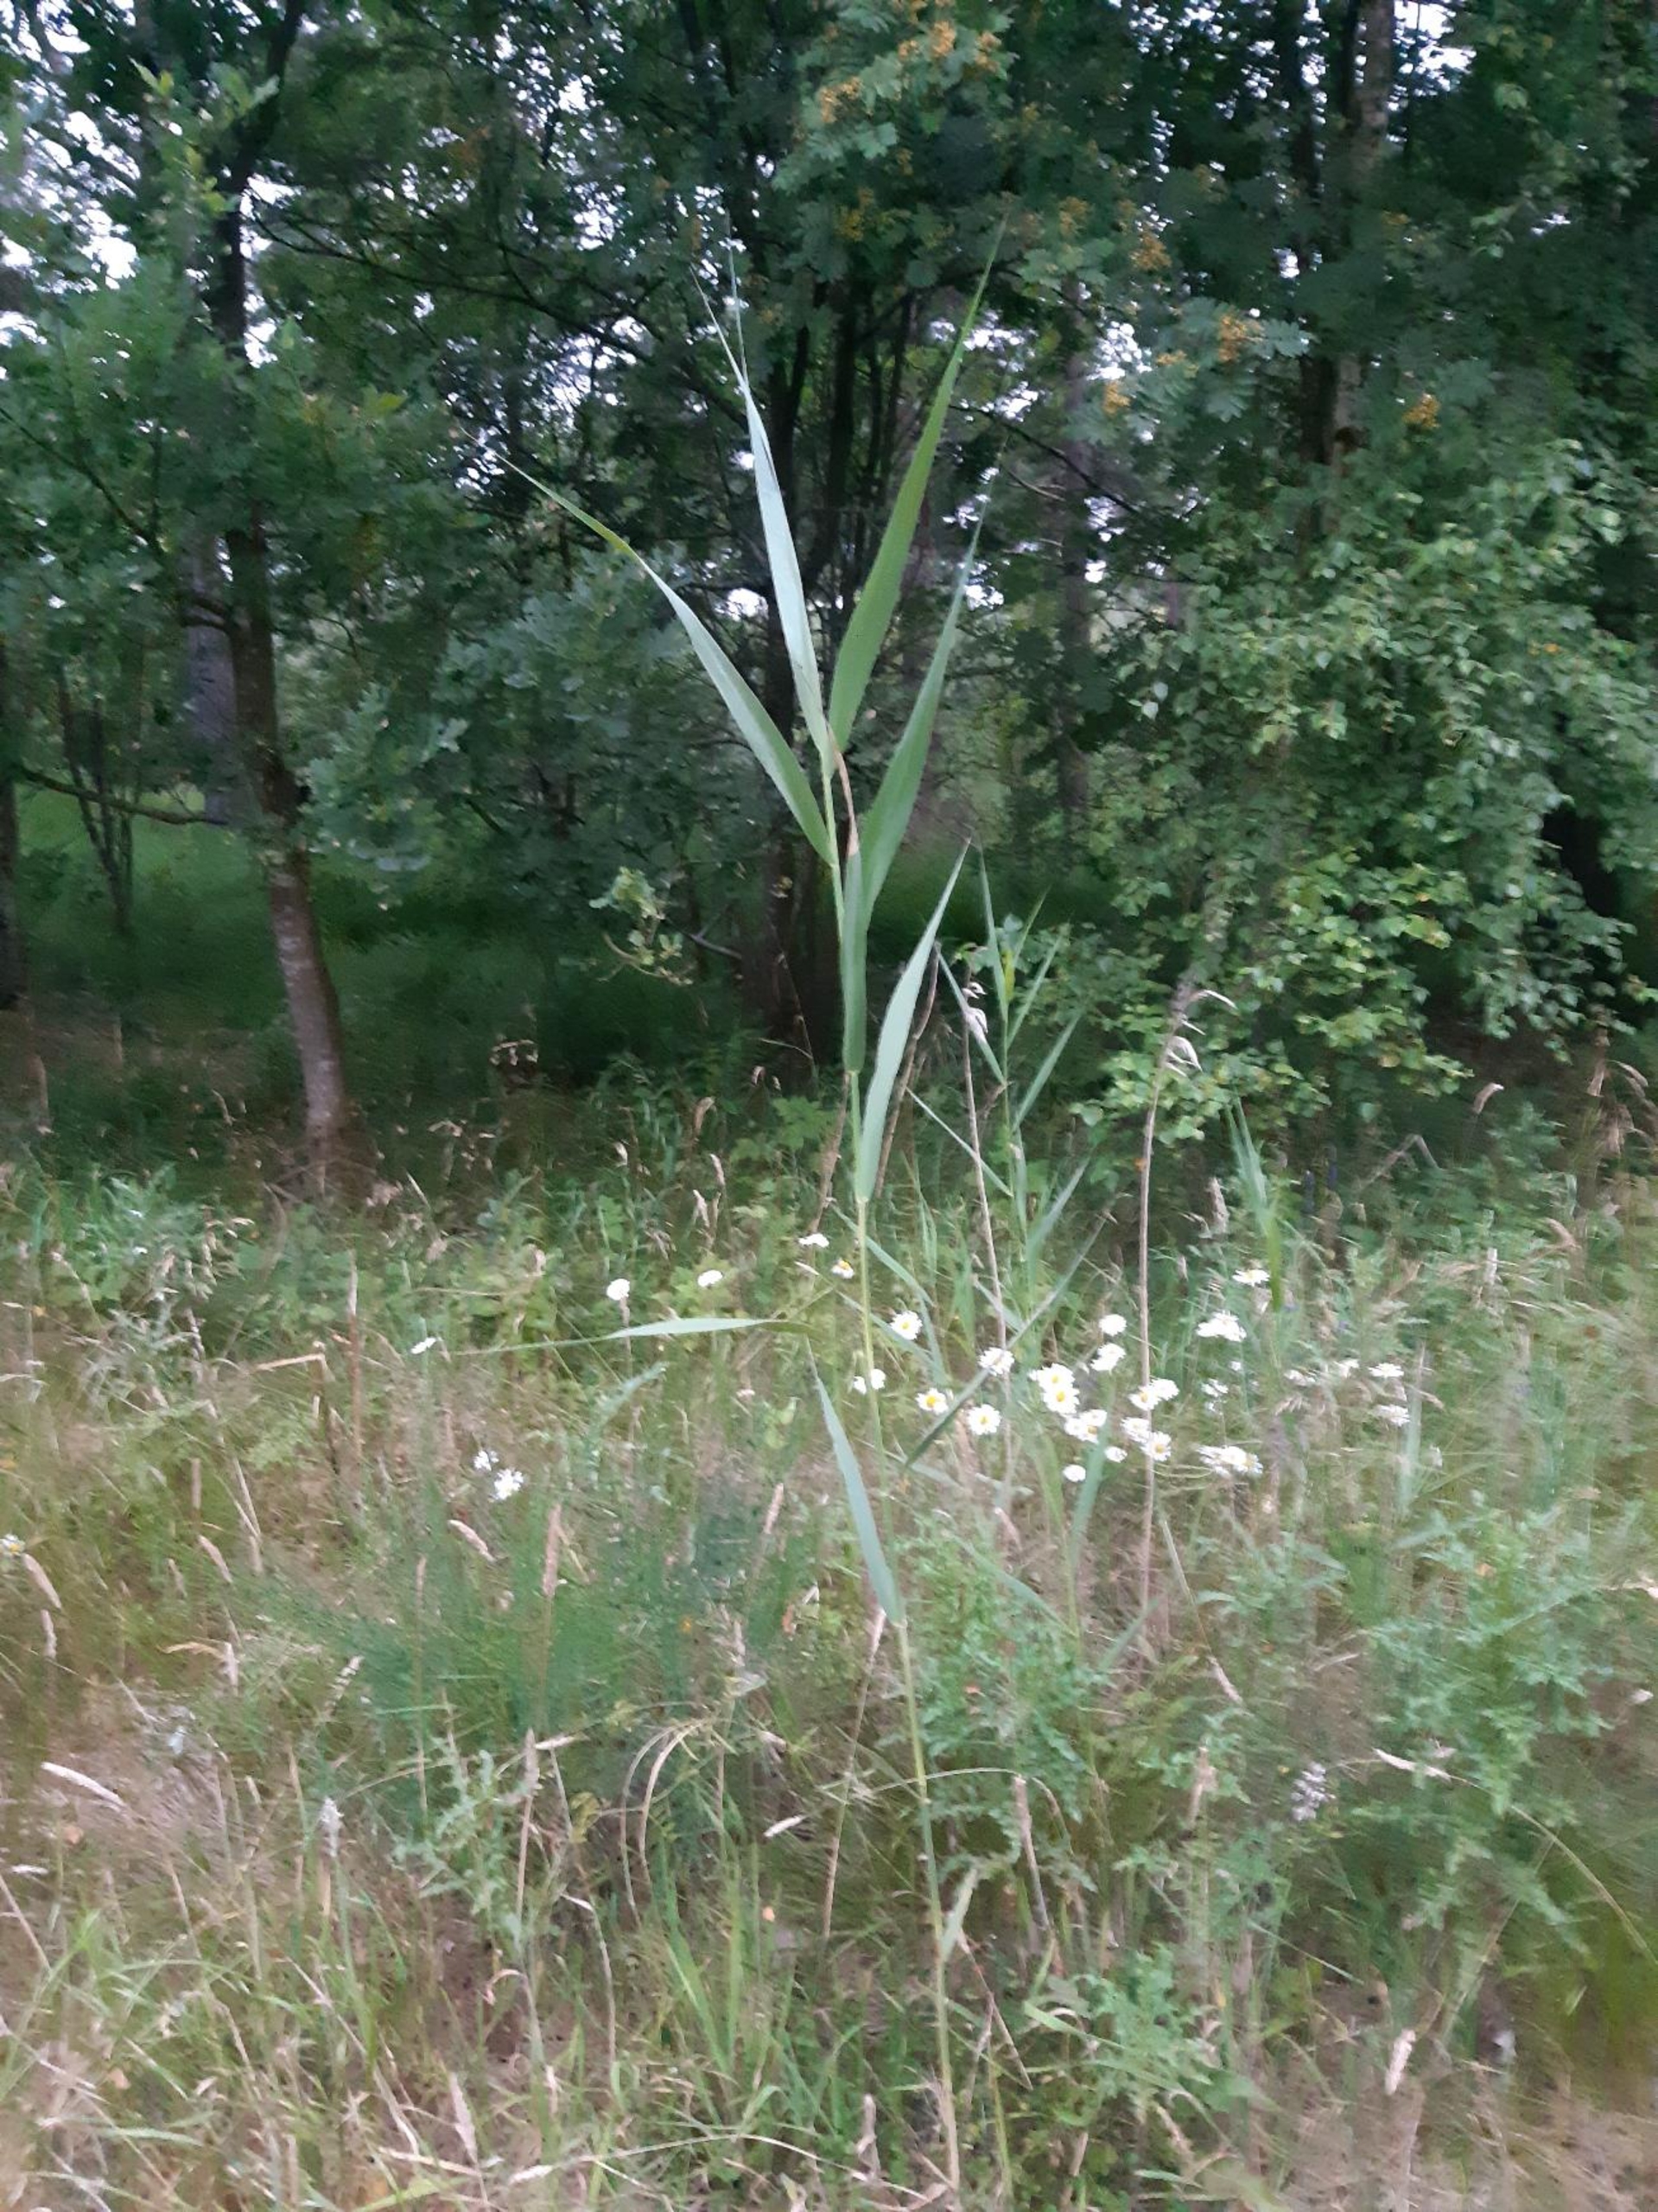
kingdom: Plantae
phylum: Tracheophyta
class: Liliopsida
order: Poales
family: Poaceae
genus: Phragmites
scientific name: Phragmites australis
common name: Tagrør
